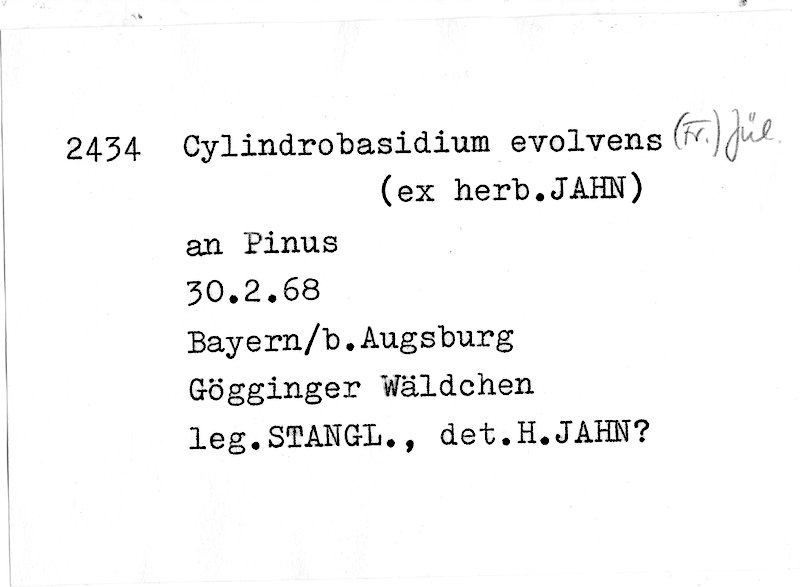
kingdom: Fungi
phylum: Basidiomycota
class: Agaricomycetes
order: Agaricales
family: Physalacriaceae
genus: Cylindrobasidium
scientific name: Cylindrobasidium evolvens
